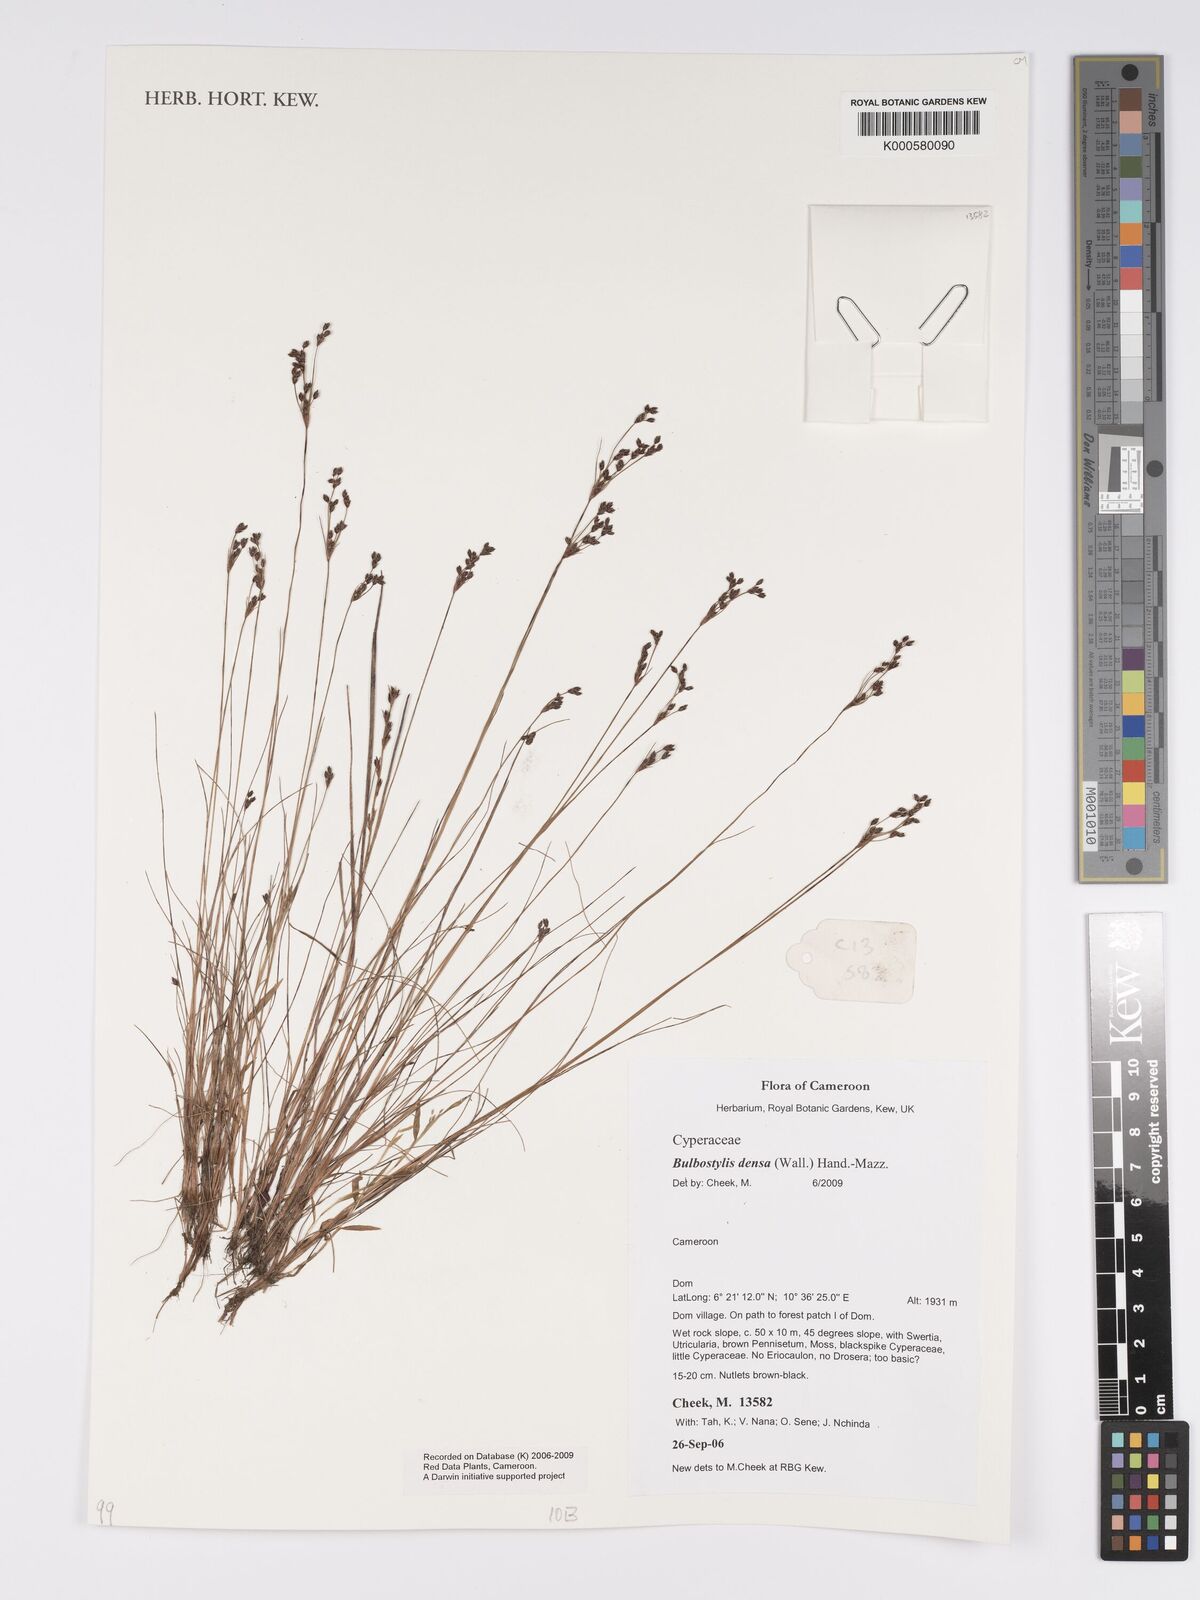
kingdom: Plantae
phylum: Tracheophyta
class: Liliopsida
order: Poales
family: Cyperaceae
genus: Bulbostylis
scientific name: Bulbostylis densa
